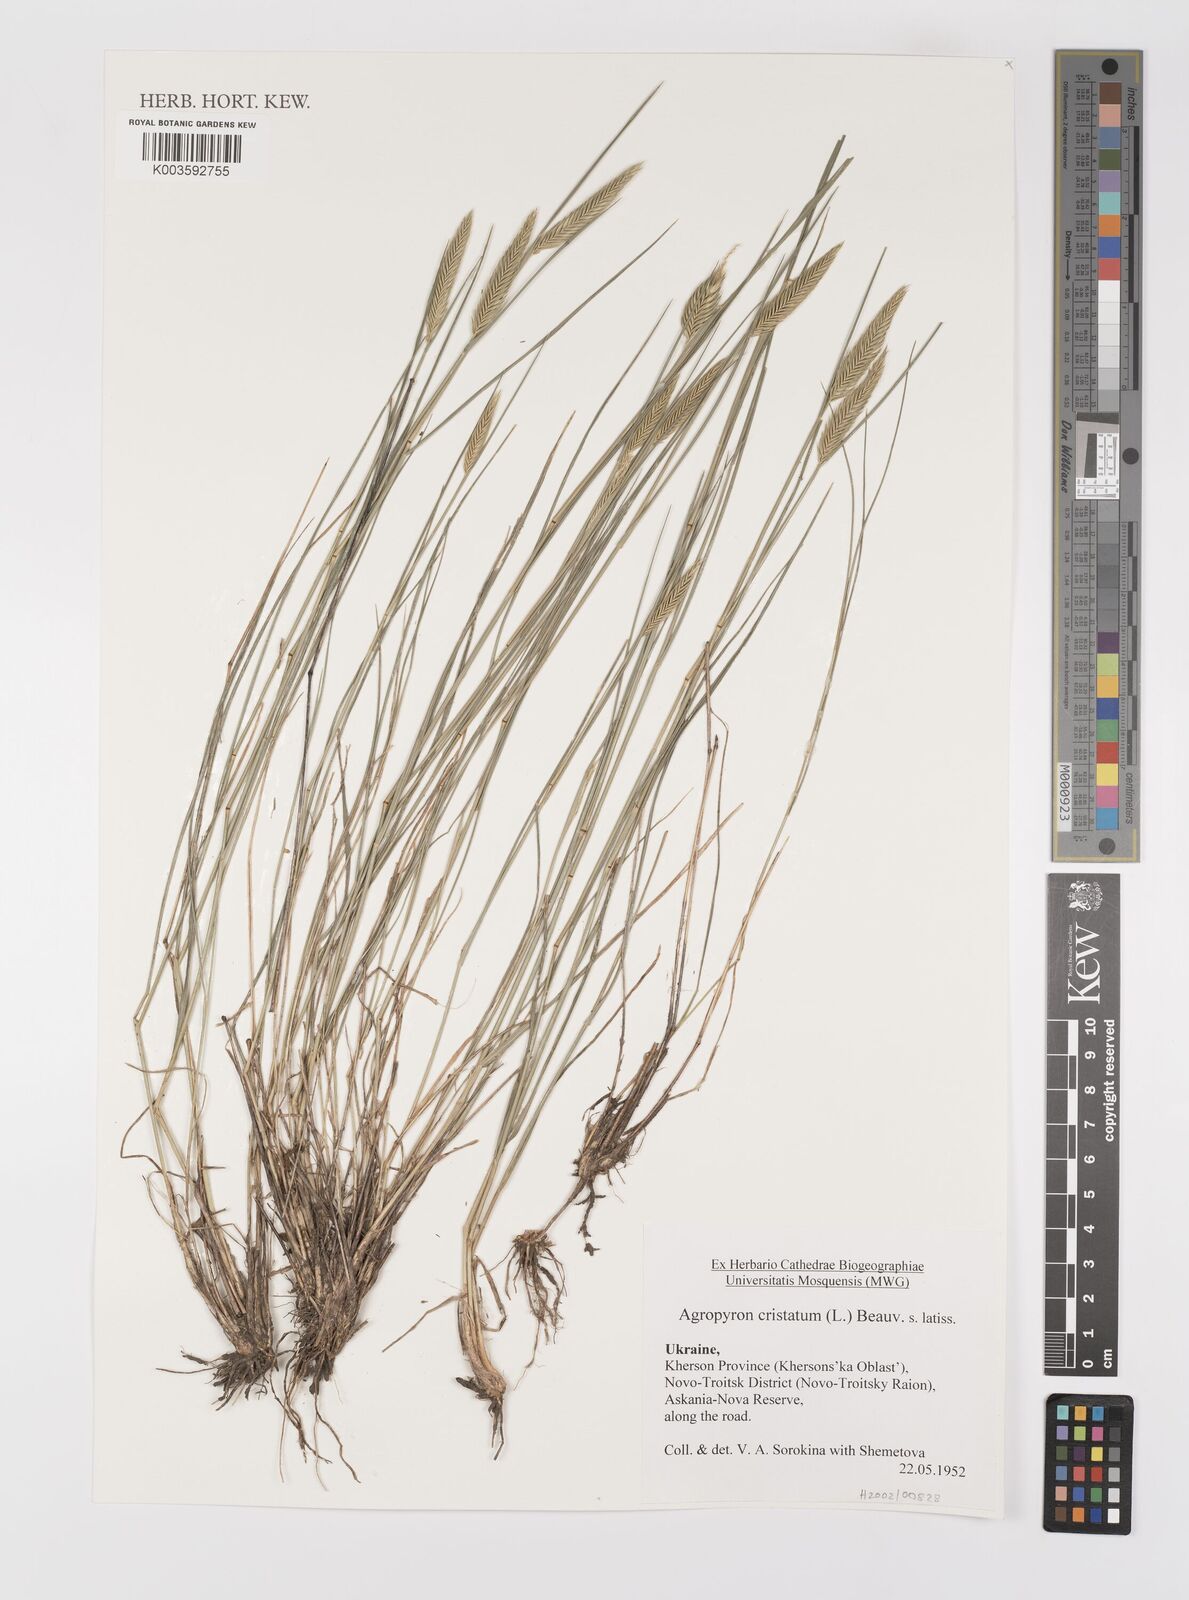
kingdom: Plantae
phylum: Tracheophyta
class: Liliopsida
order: Poales
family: Poaceae
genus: Agropyron
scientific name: Agropyron cristatum
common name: Crested wheatgrass
